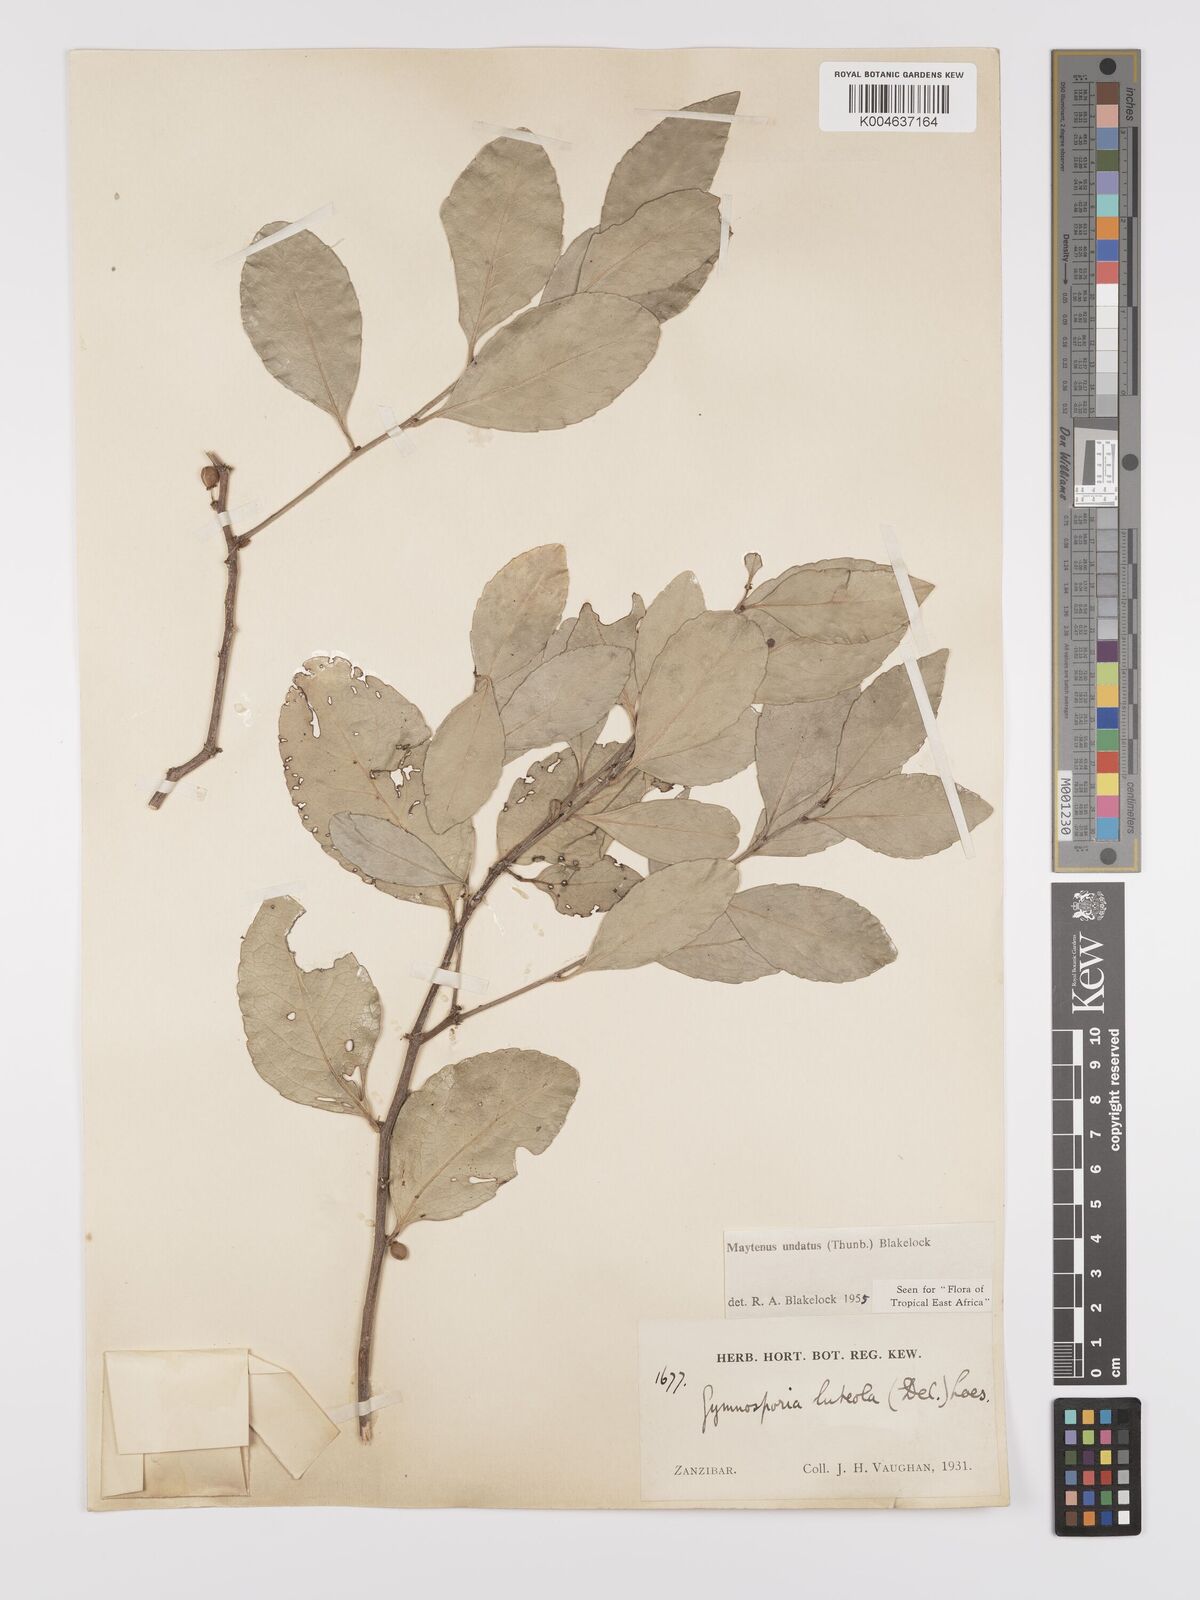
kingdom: Plantae
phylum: Tracheophyta
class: Magnoliopsida
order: Celastrales
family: Celastraceae
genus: Gymnosporia
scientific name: Gymnosporia undata
